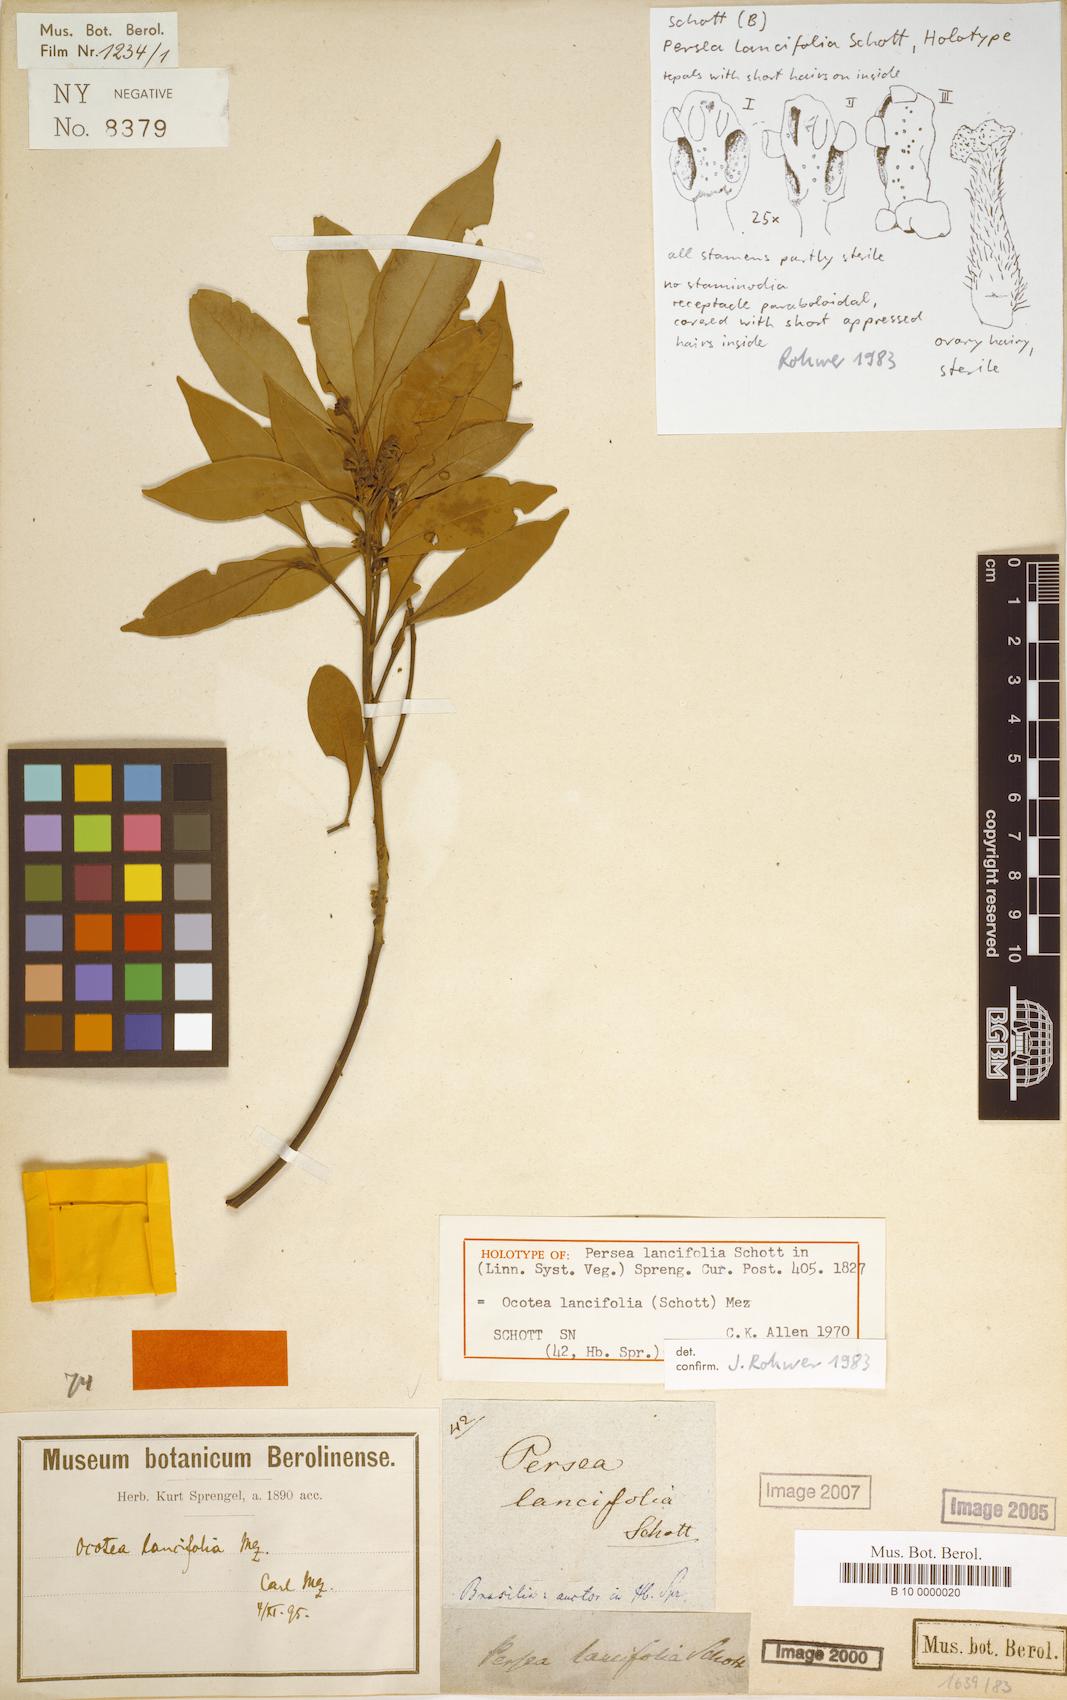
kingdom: Plantae
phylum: Tracheophyta
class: Magnoliopsida
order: Laurales
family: Lauraceae
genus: Ocotea
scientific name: Ocotea lancifolia
